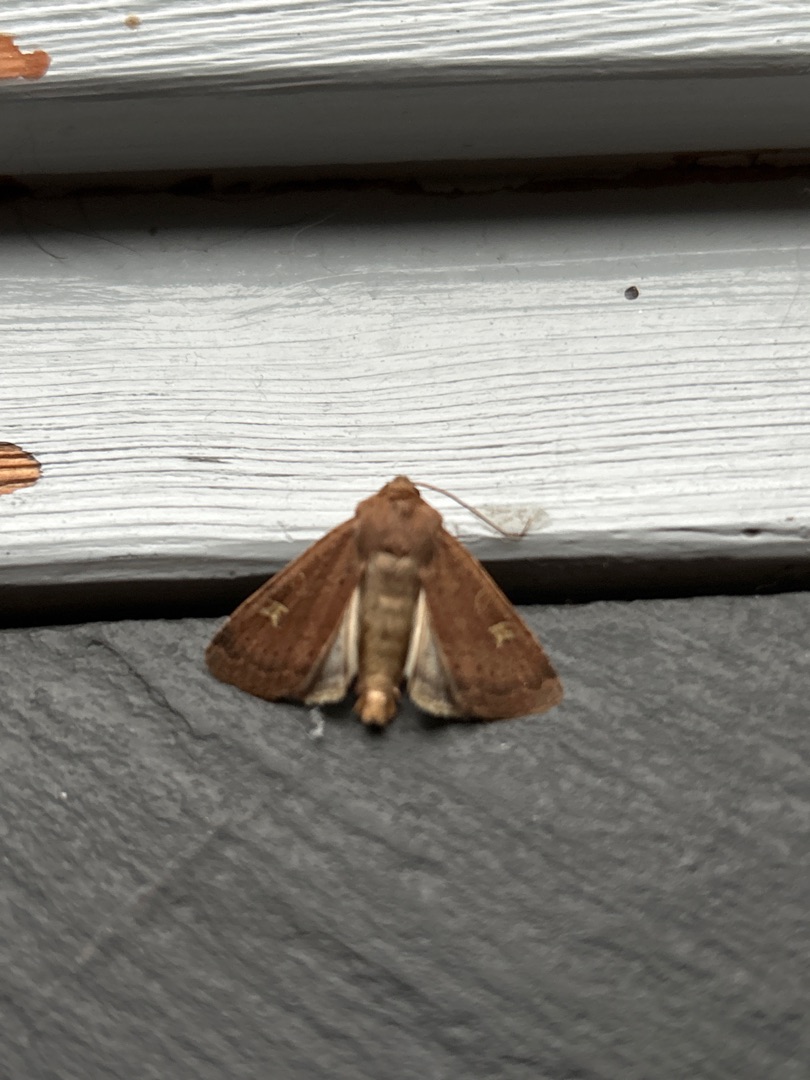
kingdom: Animalia
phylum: Arthropoda
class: Insecta
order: Lepidoptera
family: Noctuidae
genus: Xestia
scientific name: Xestia xanthographa
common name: Gulmærket glansugle
